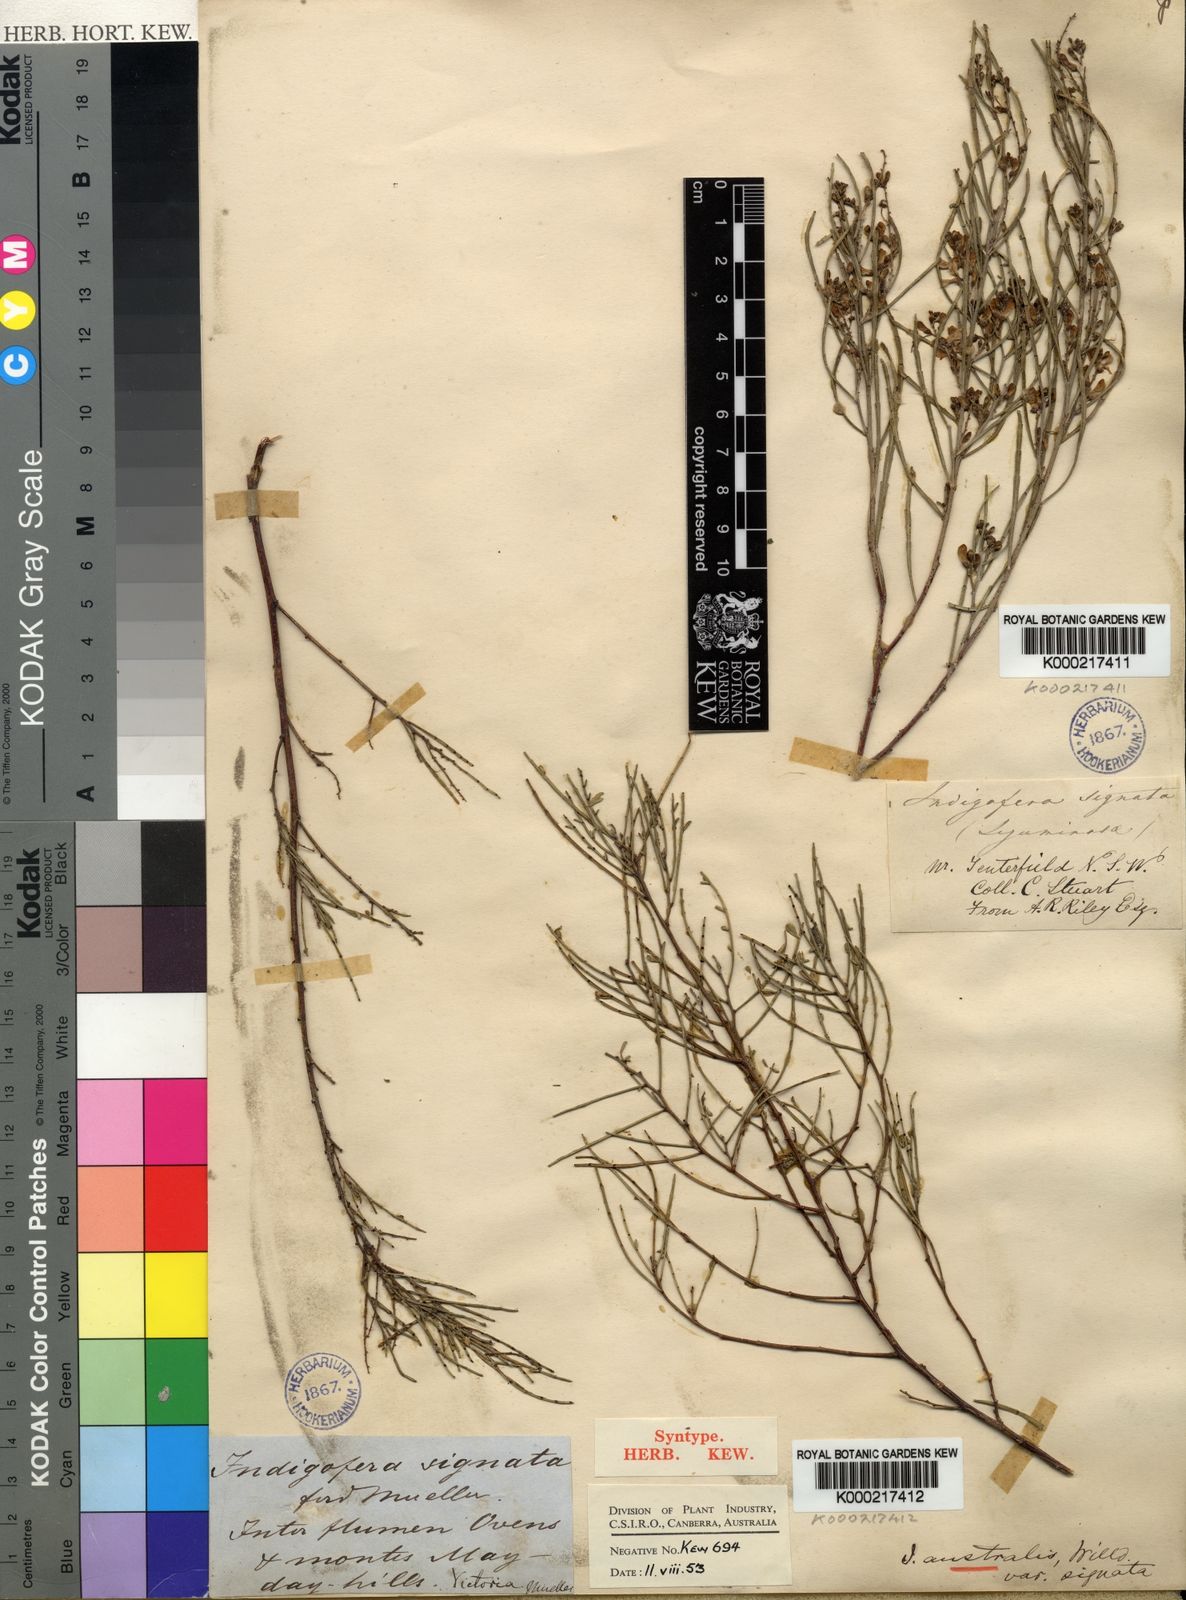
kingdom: Plantae
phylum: Tracheophyta
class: Magnoliopsida
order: Fabales
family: Fabaceae
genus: Indigofera
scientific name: Indigofera
